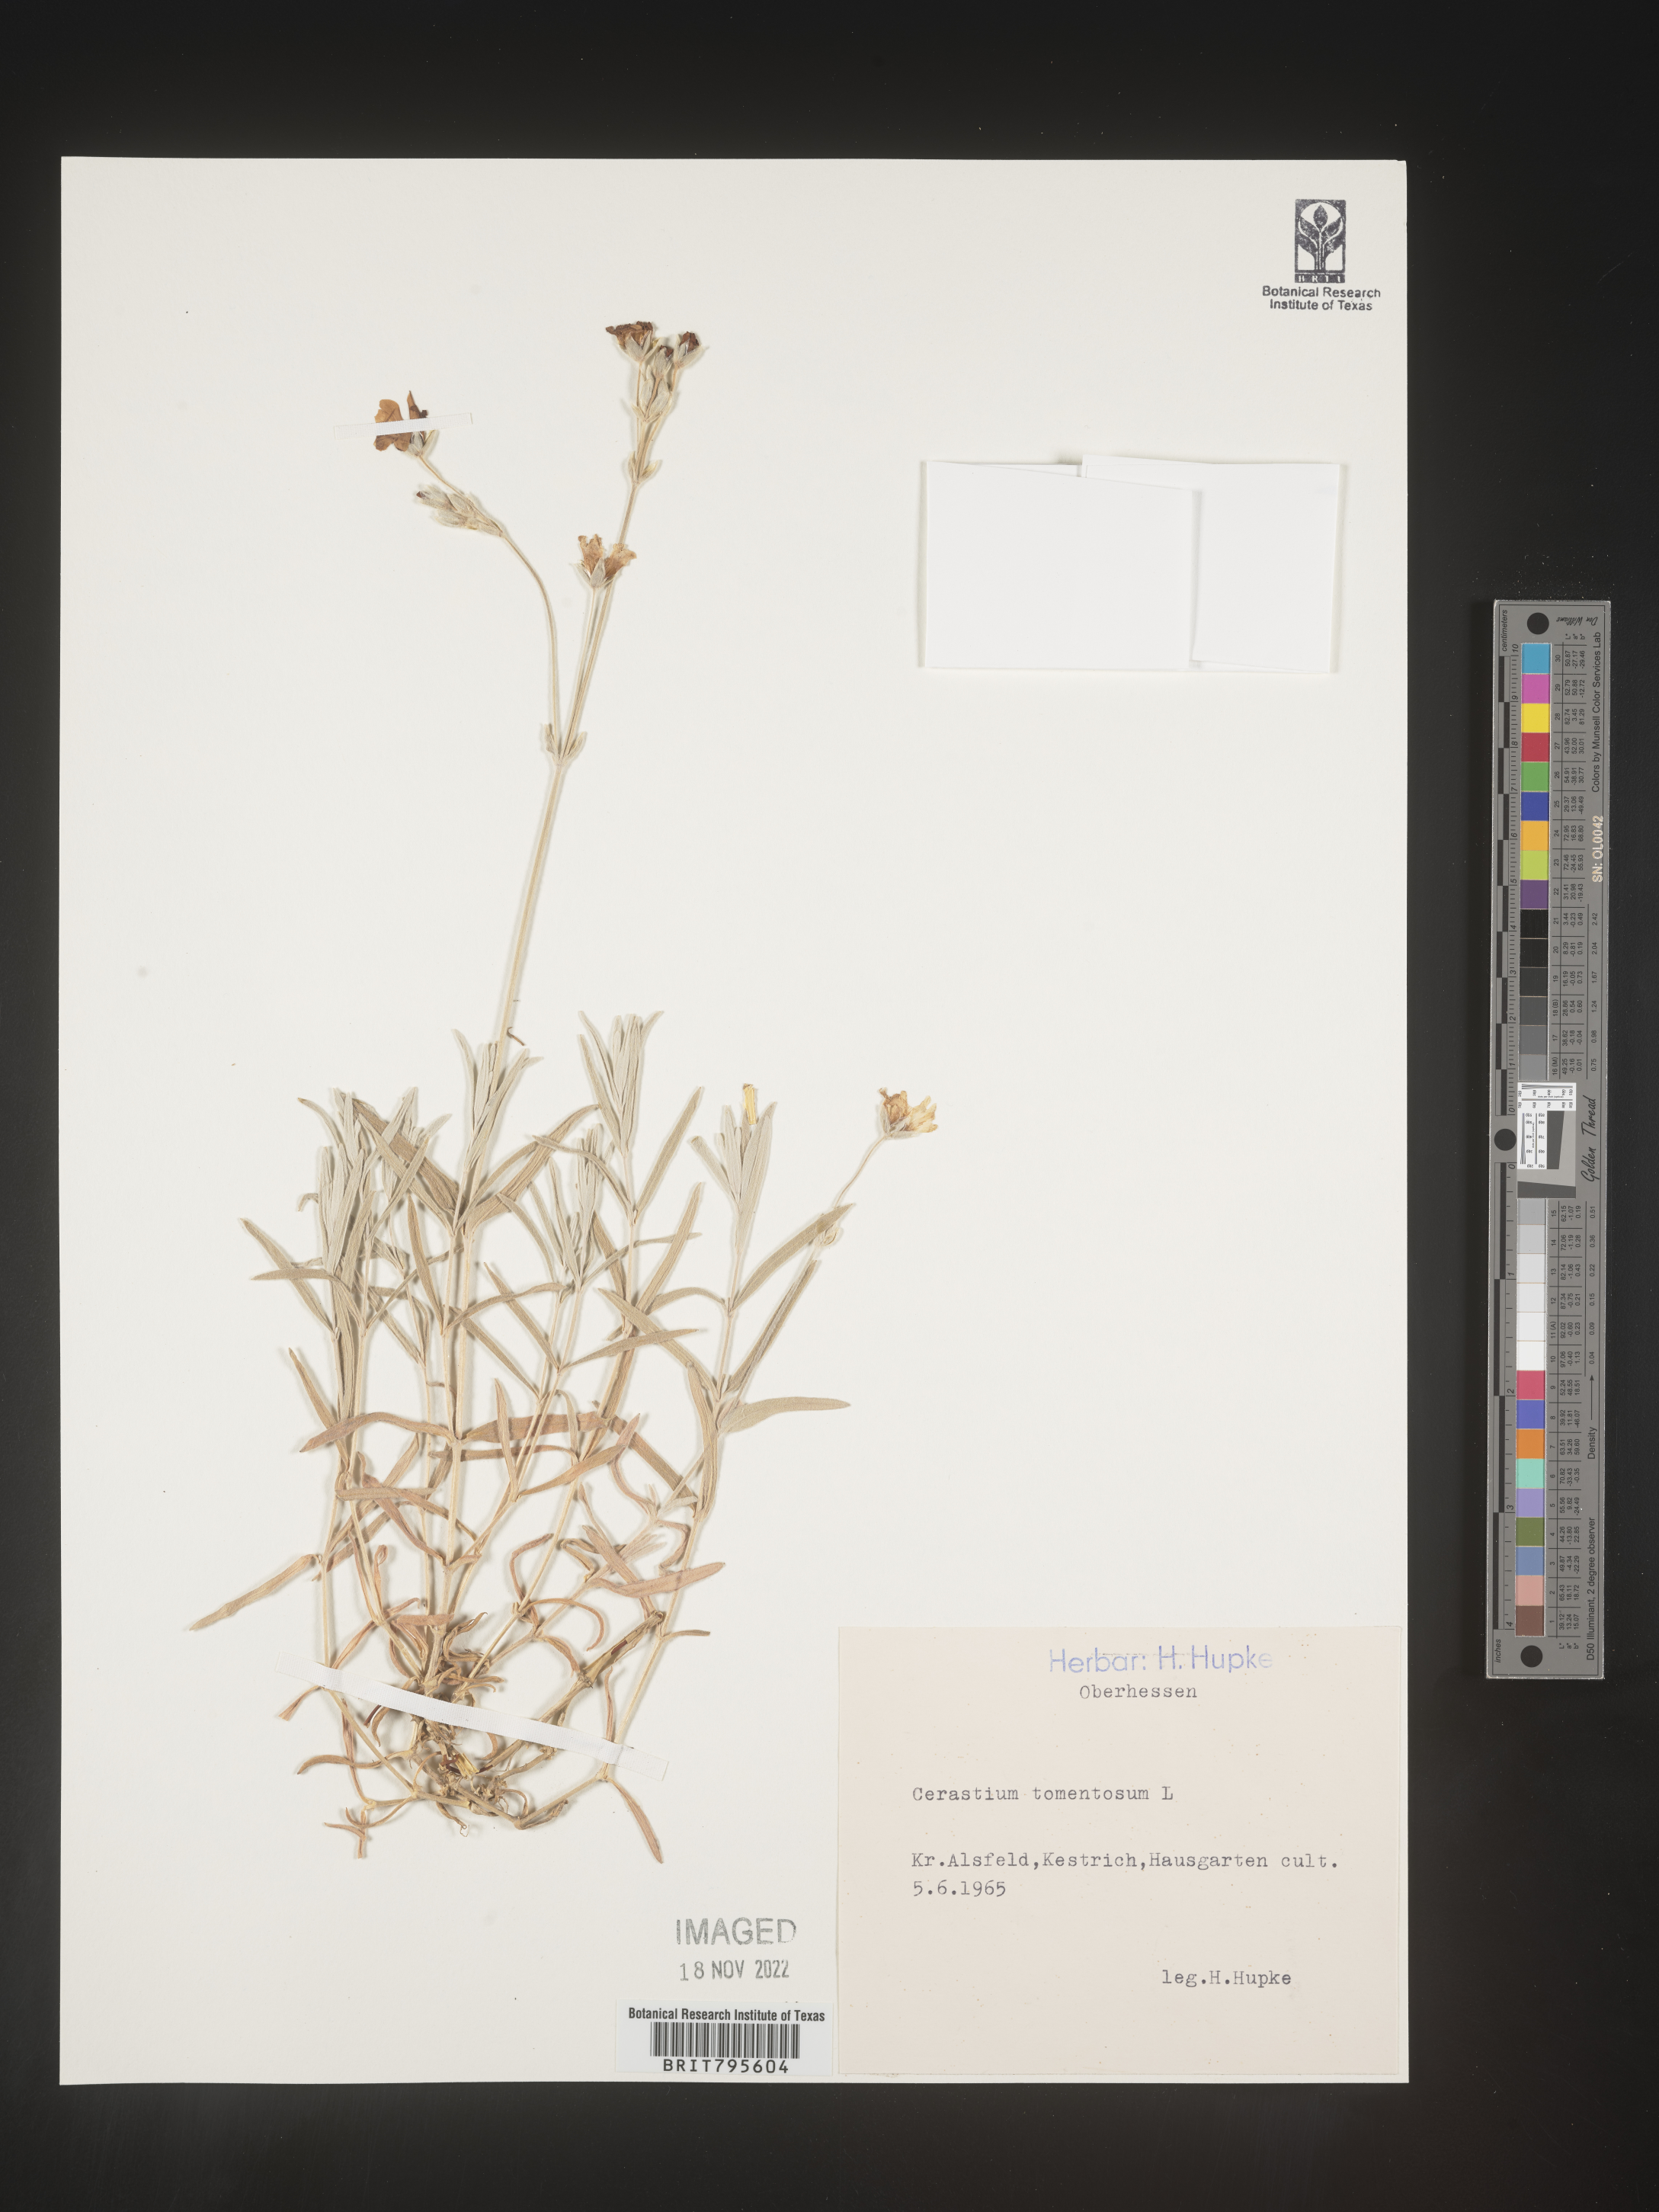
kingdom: Plantae
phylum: Tracheophyta
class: Magnoliopsida
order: Caryophyllales
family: Caryophyllaceae
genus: Cerastium
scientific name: Cerastium
